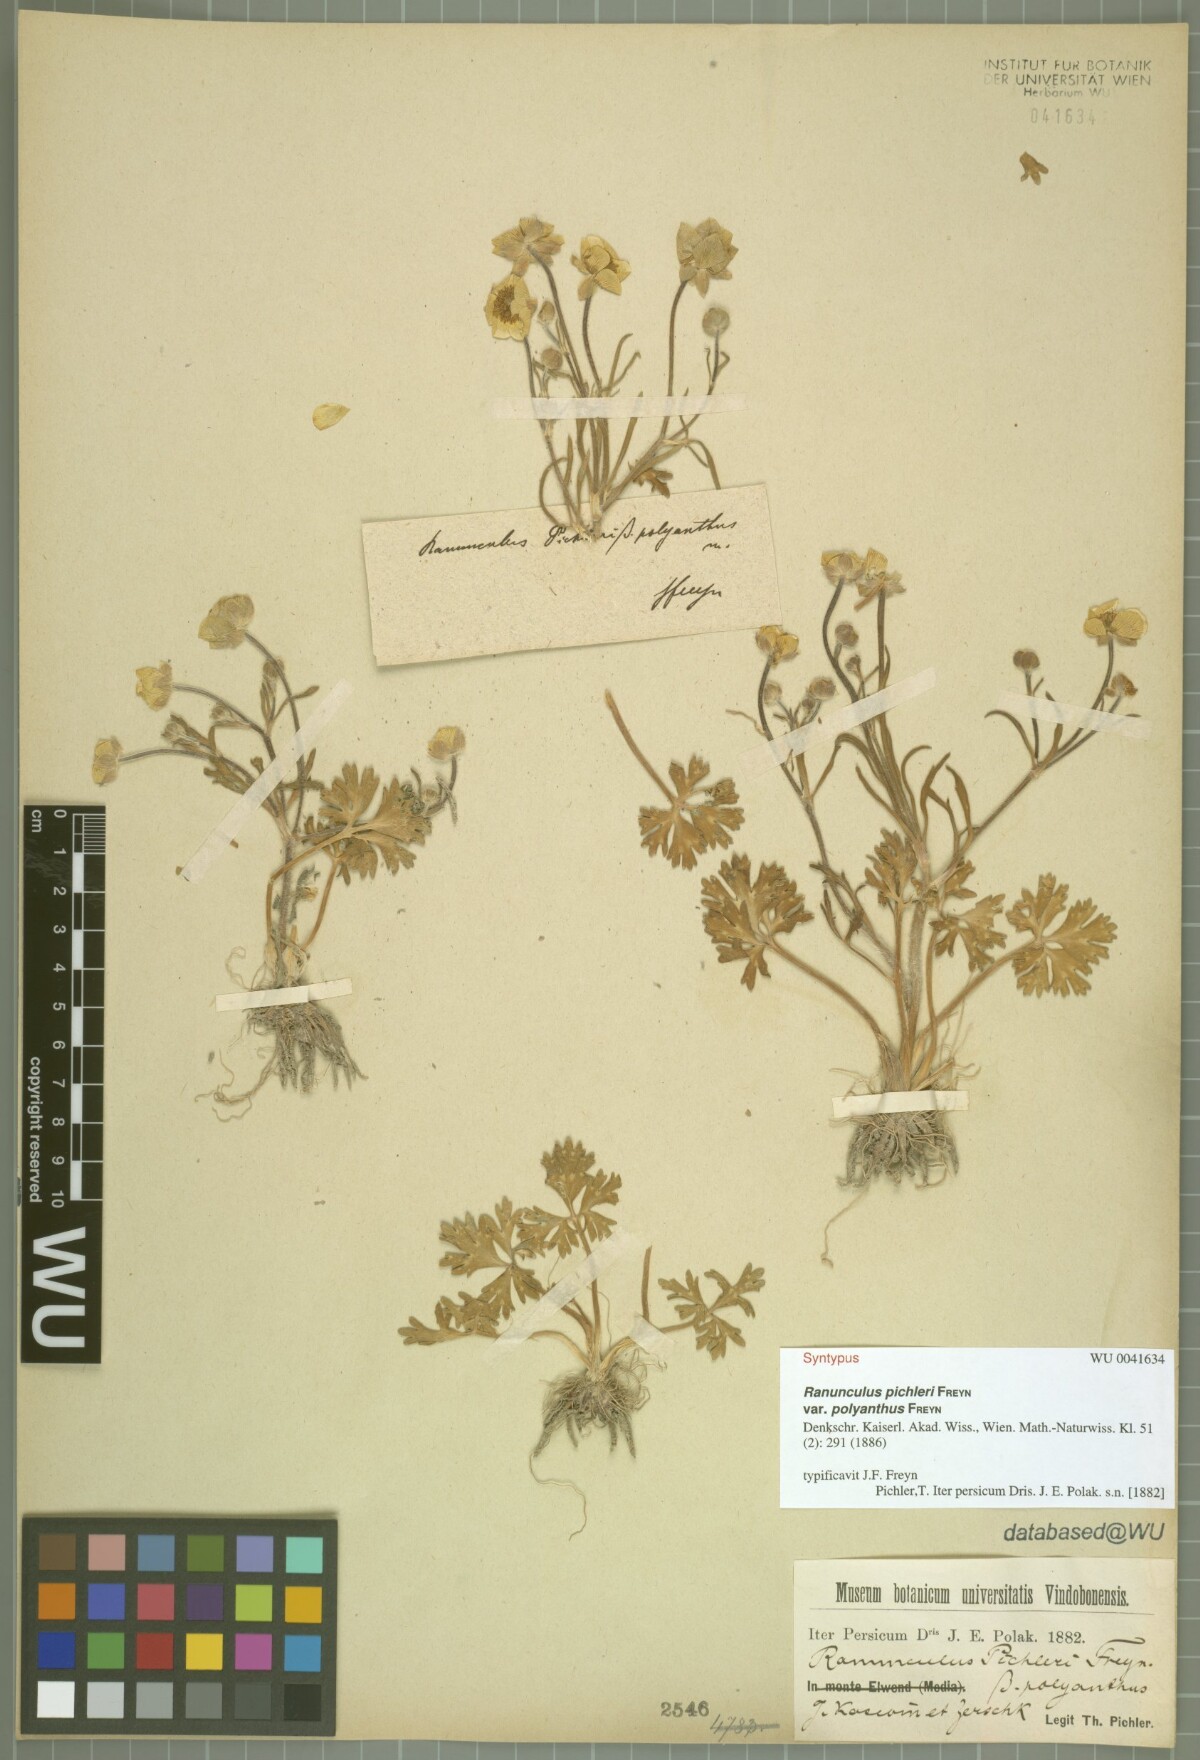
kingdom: Plantae
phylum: Tracheophyta
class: Magnoliopsida
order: Ranunculales
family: Ranunculaceae
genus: Ranunculus
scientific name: Ranunculus pichleri
